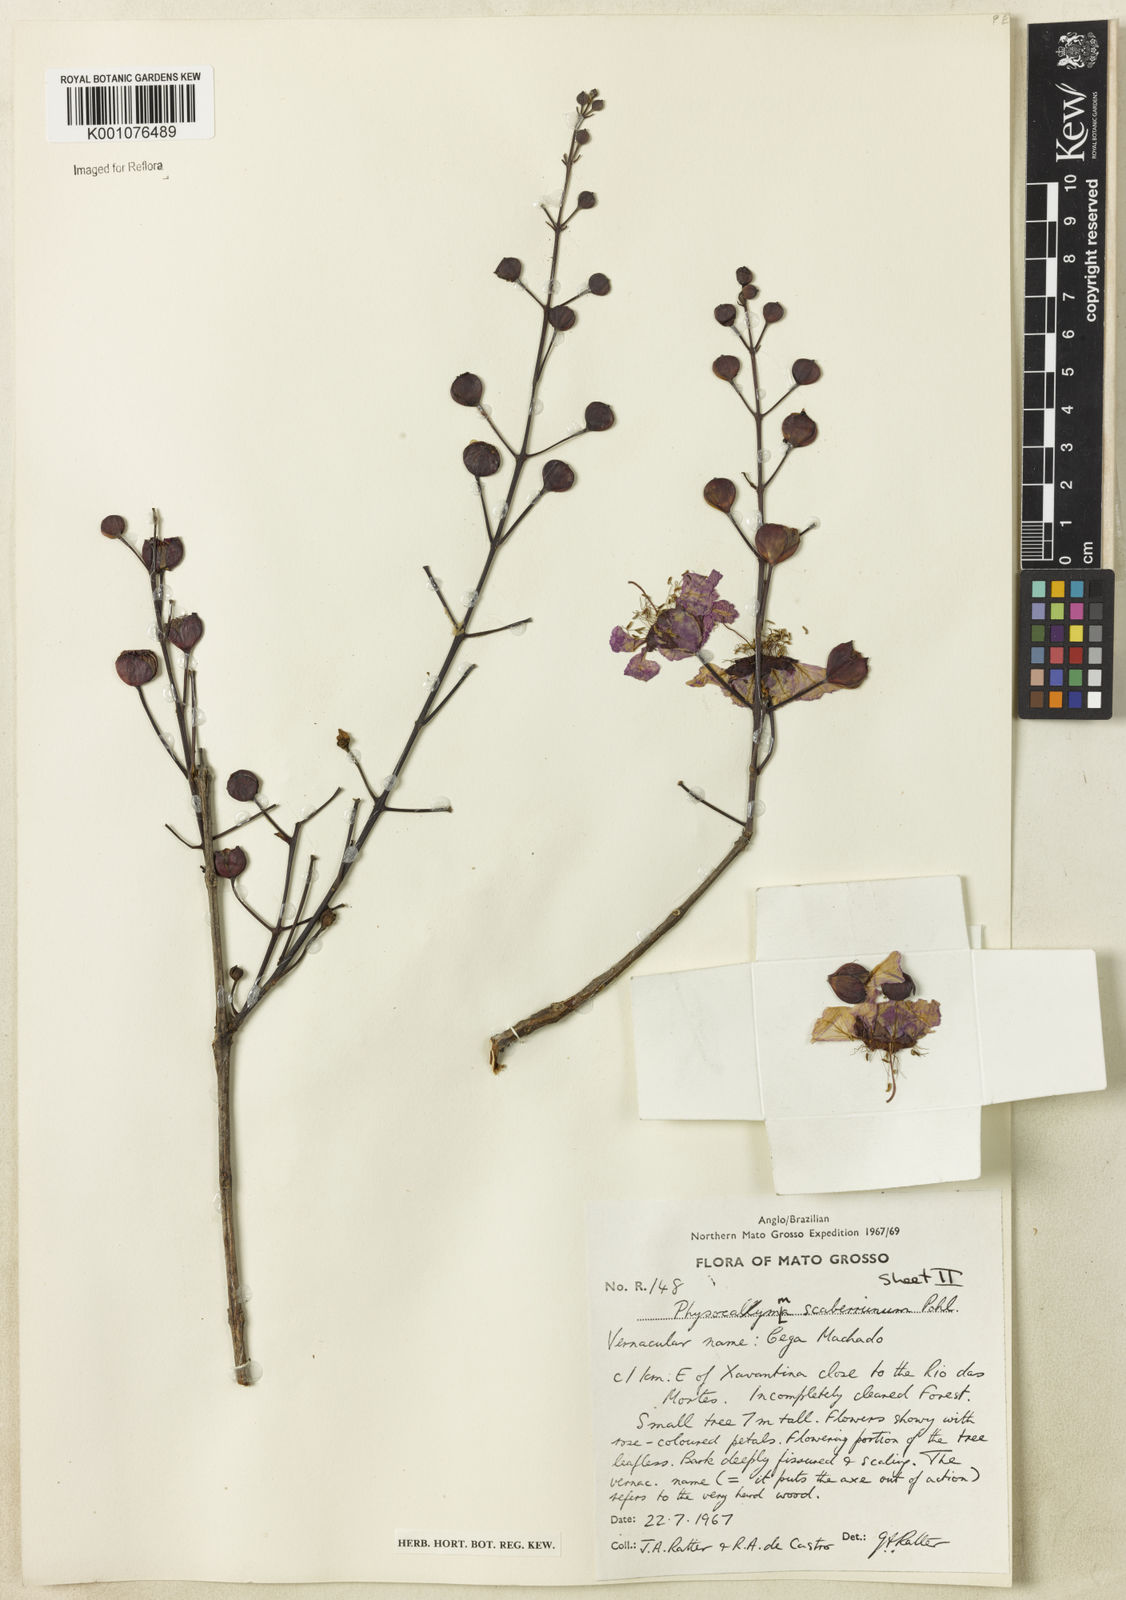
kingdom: Plantae
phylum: Tracheophyta
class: Magnoliopsida
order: Myrtales
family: Lythraceae
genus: Physocalymma
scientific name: Physocalymma scaberrimum
